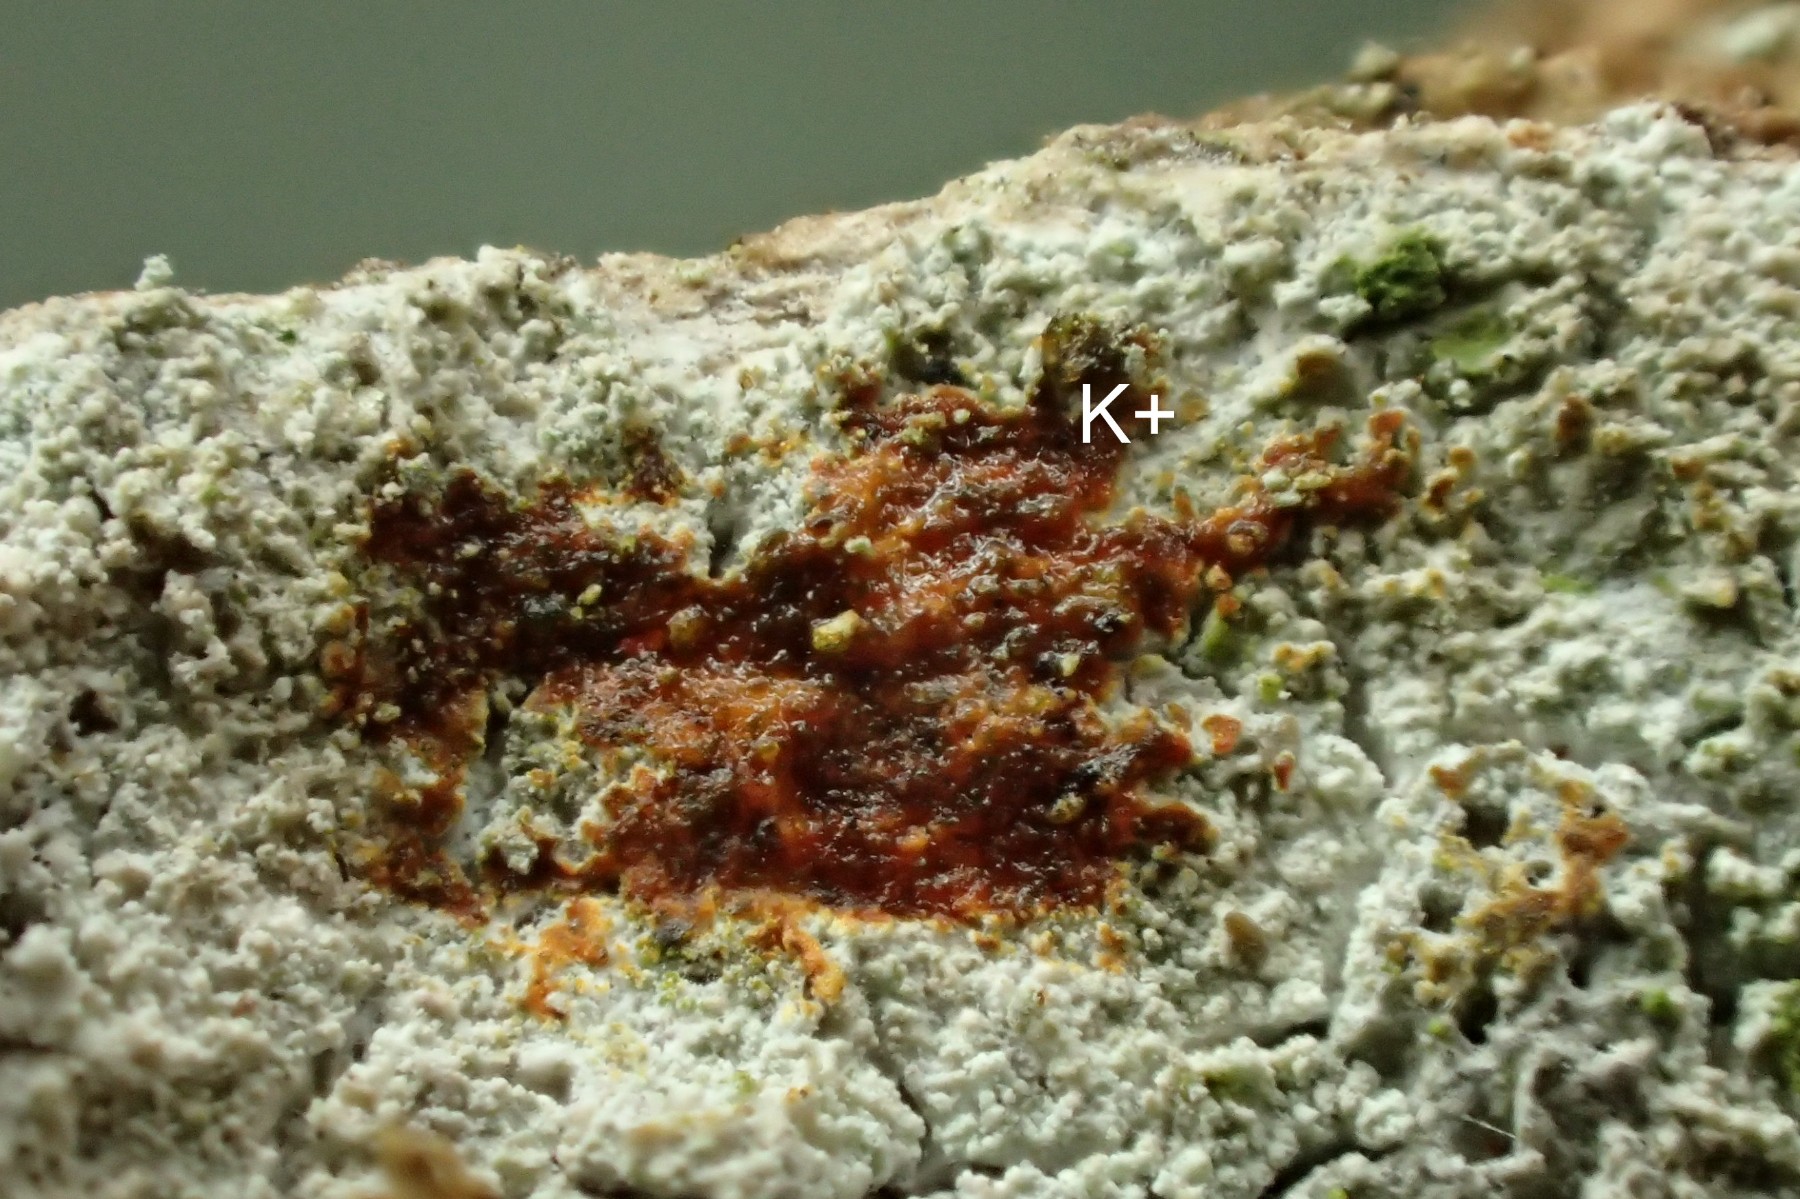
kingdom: Fungi
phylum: Ascomycota
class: Lecanoromycetes
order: Ostropales
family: Phlyctidaceae
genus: Phlyctis
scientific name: Phlyctis argena
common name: almindelig sølvlav
